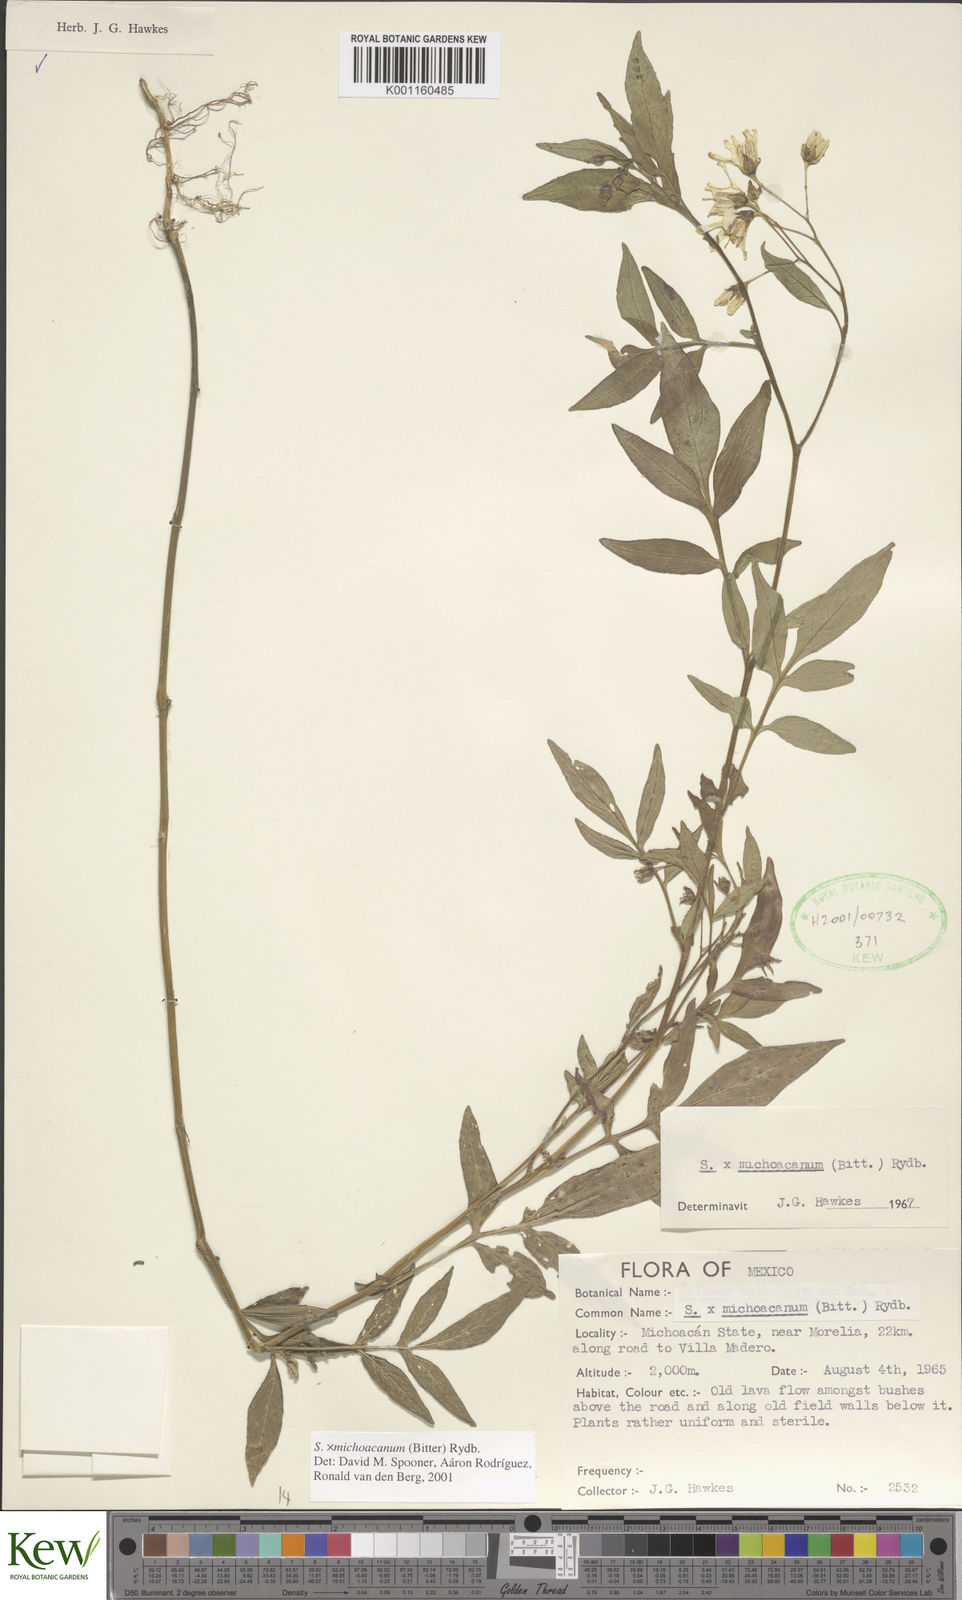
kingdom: Plantae
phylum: Tracheophyta
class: Magnoliopsida
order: Solanales
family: Solanaceae
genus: Solanum
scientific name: Solanum bulbocastanum
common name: Ornamental nightshade
